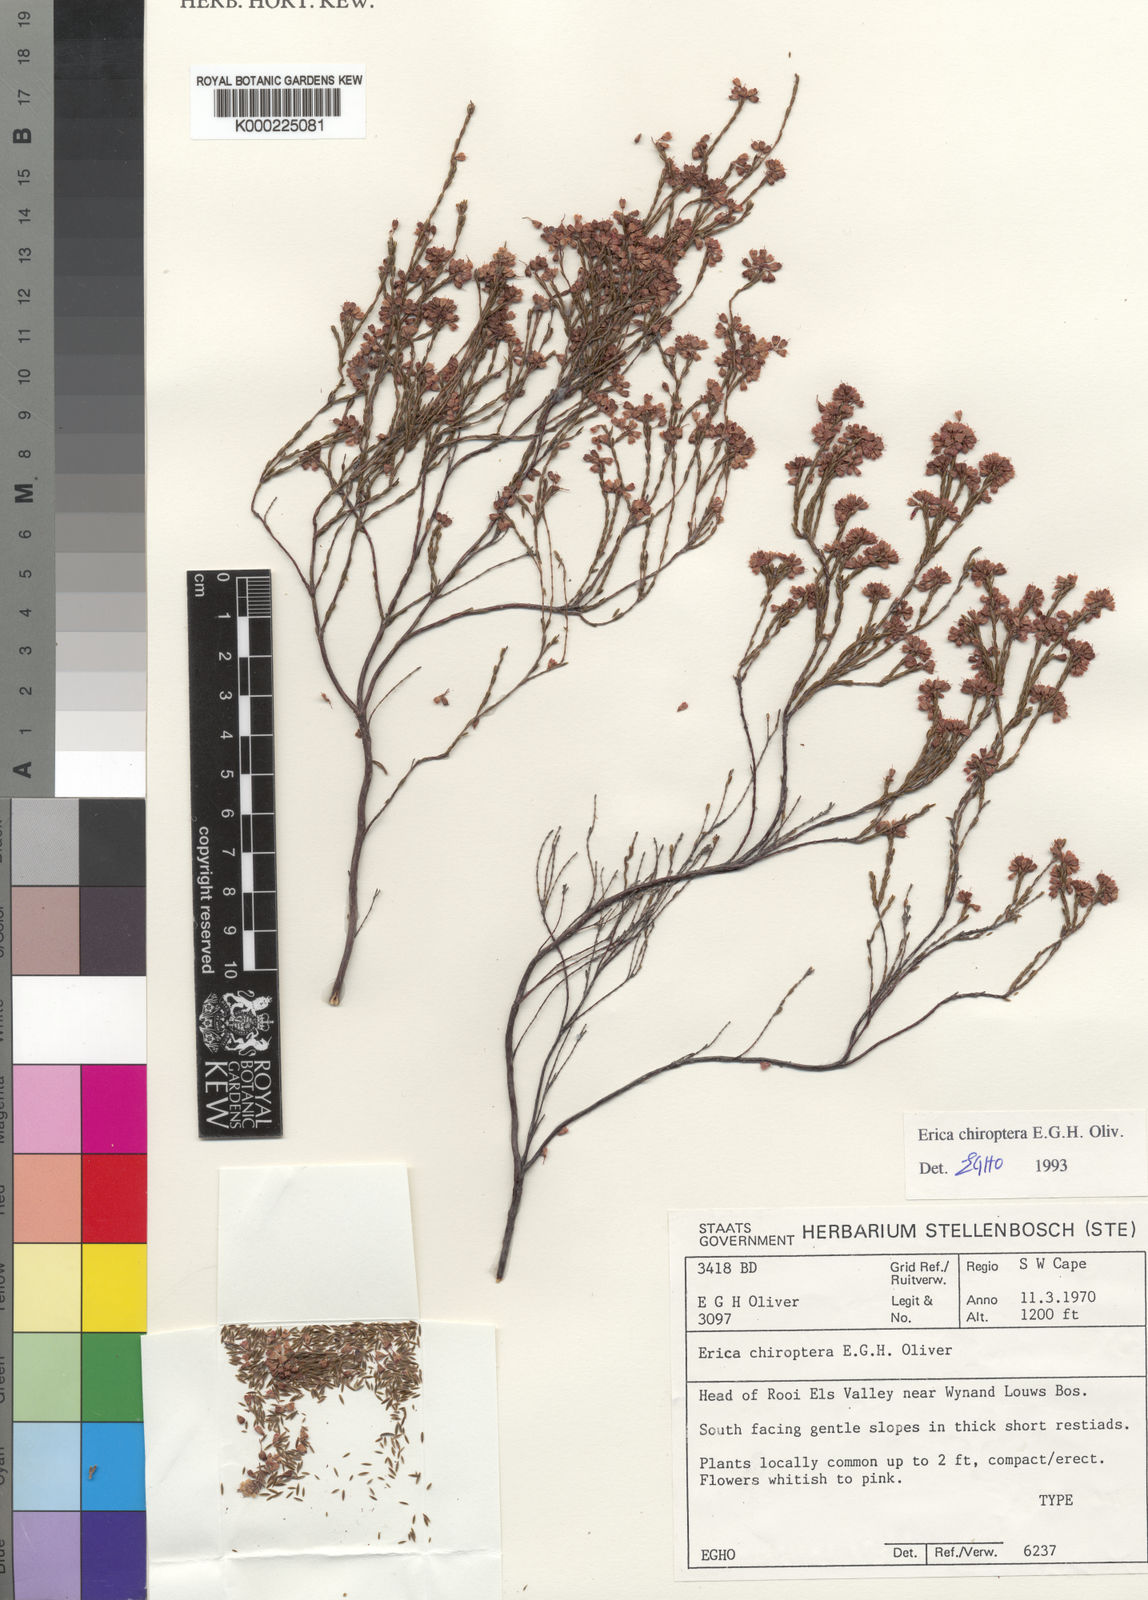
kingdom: Plantae
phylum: Tracheophyta
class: Magnoliopsida
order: Ericales
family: Ericaceae
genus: Erica
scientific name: Erica chiroptera
